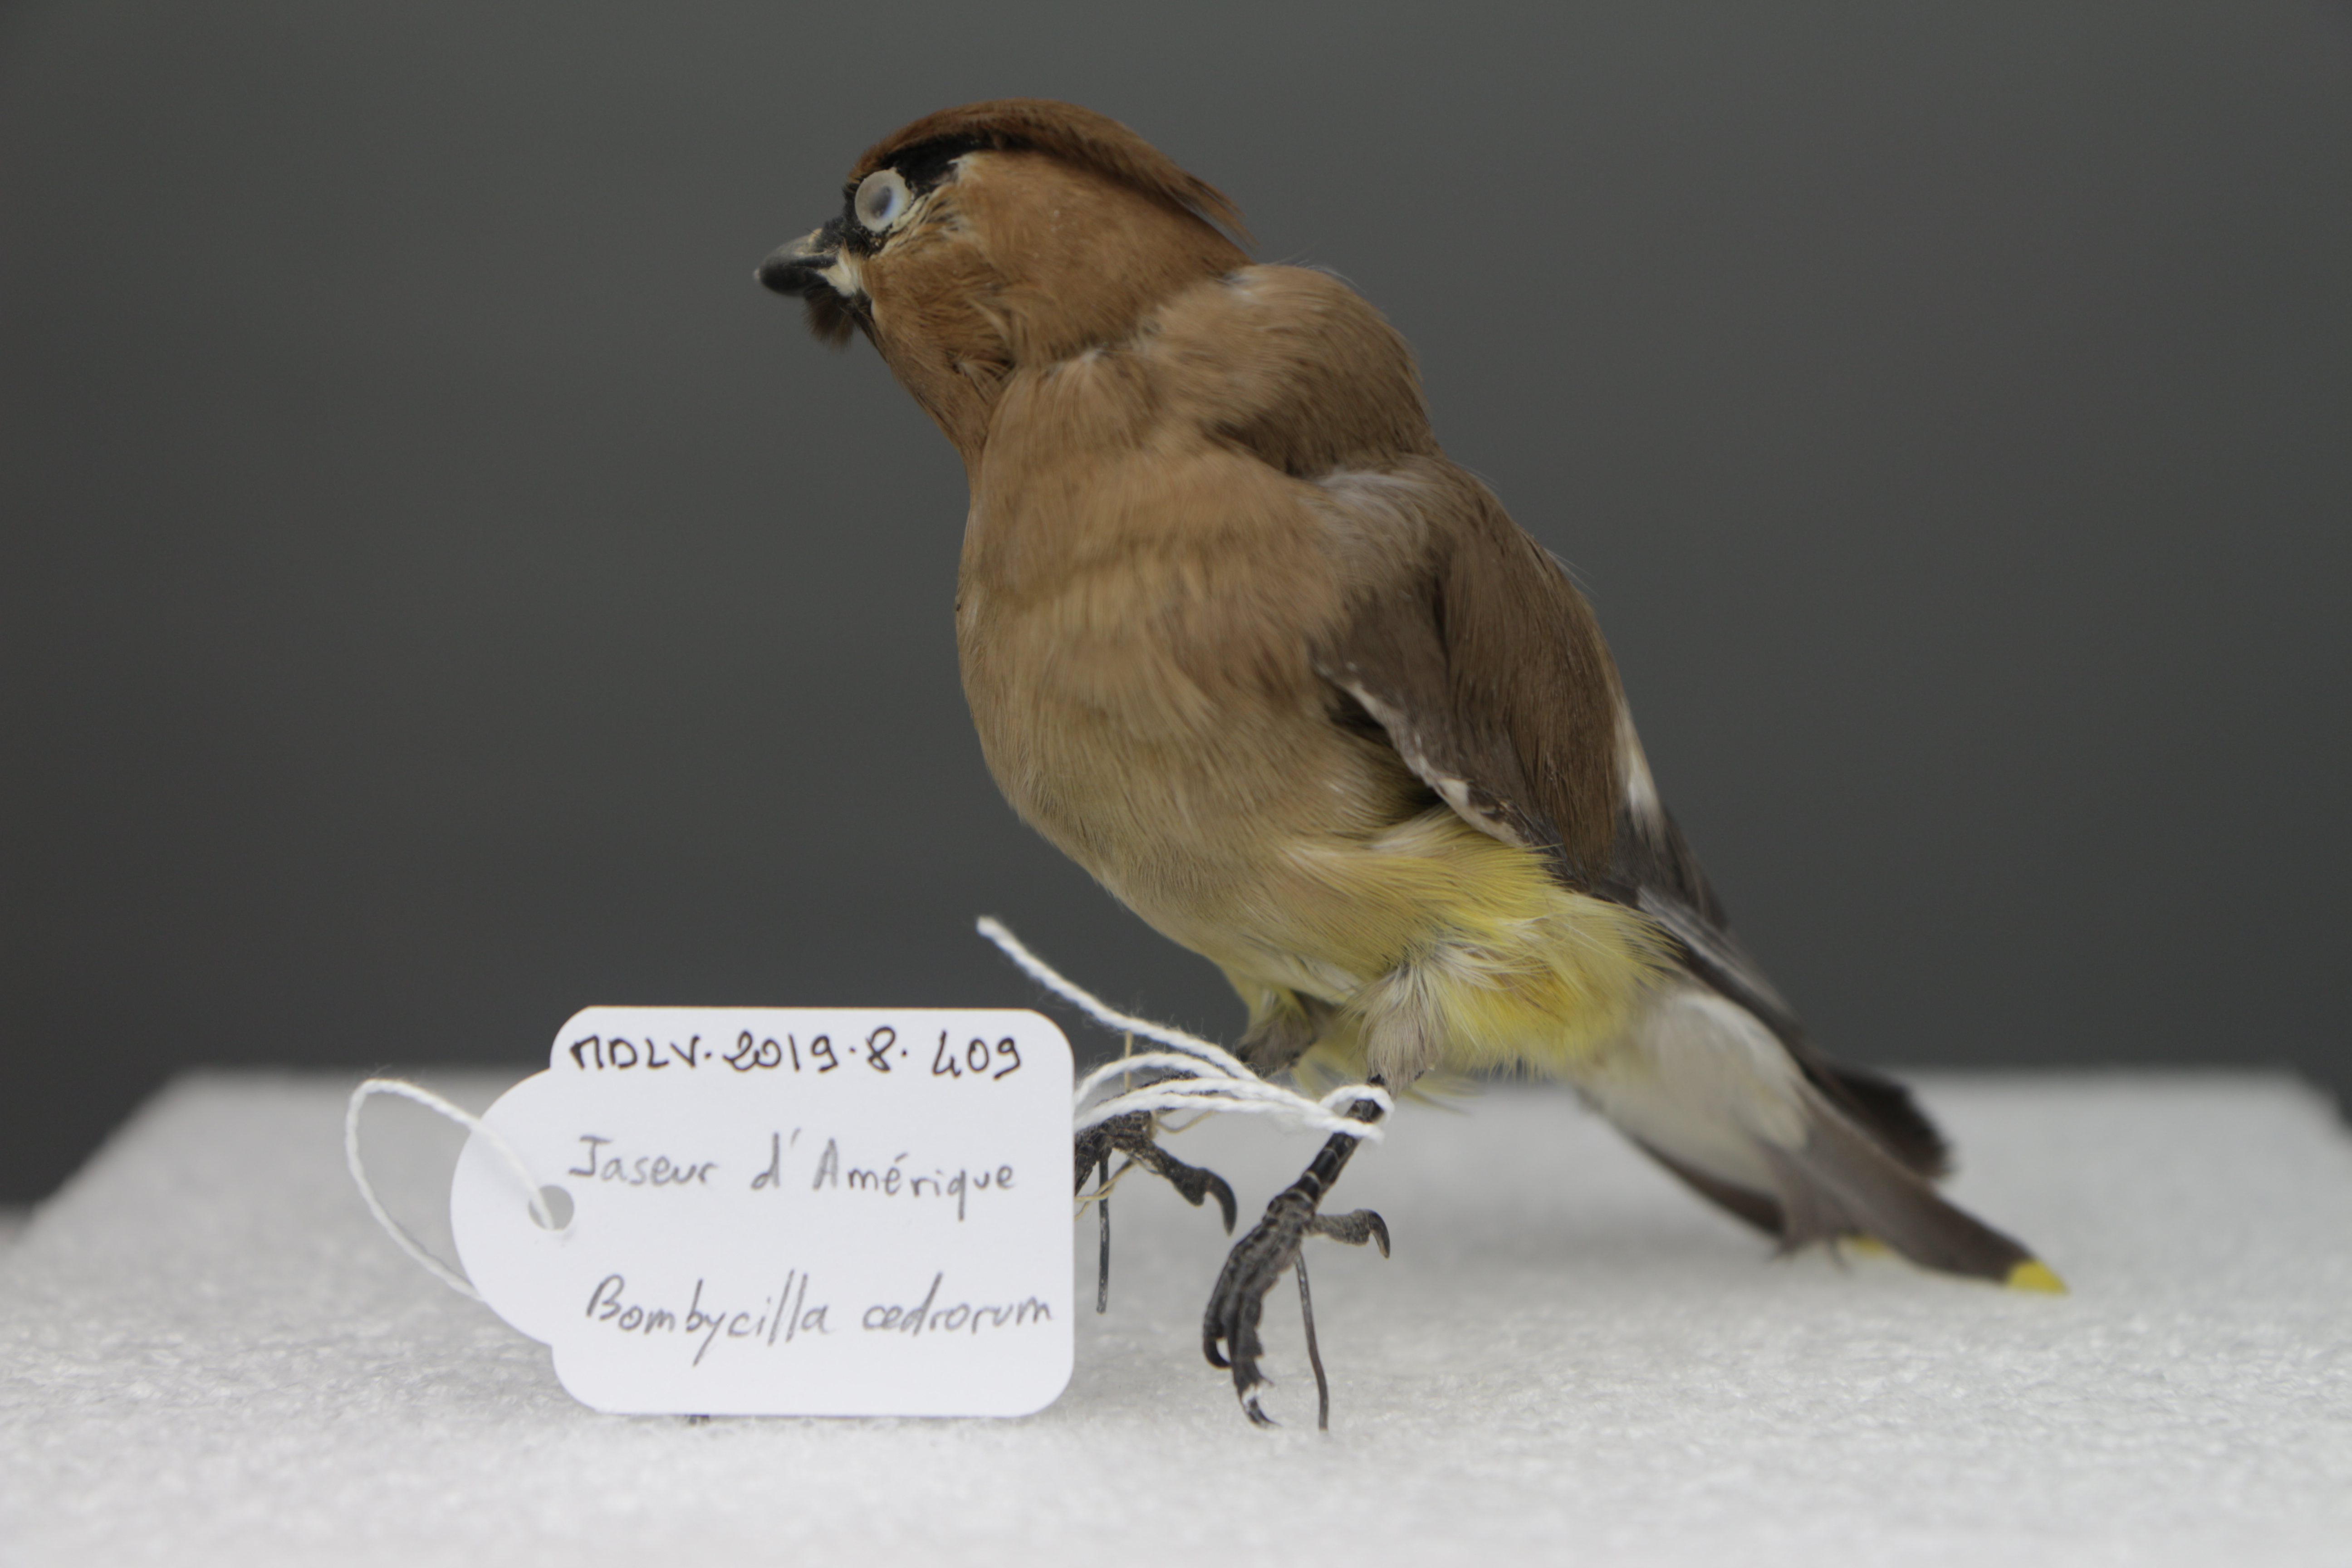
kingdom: Animalia
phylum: Chordata
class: Aves
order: Passeriformes
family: Bombycillidae
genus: Bombycilla
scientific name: Bombycilla cedrorum
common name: Cedar waxwing
